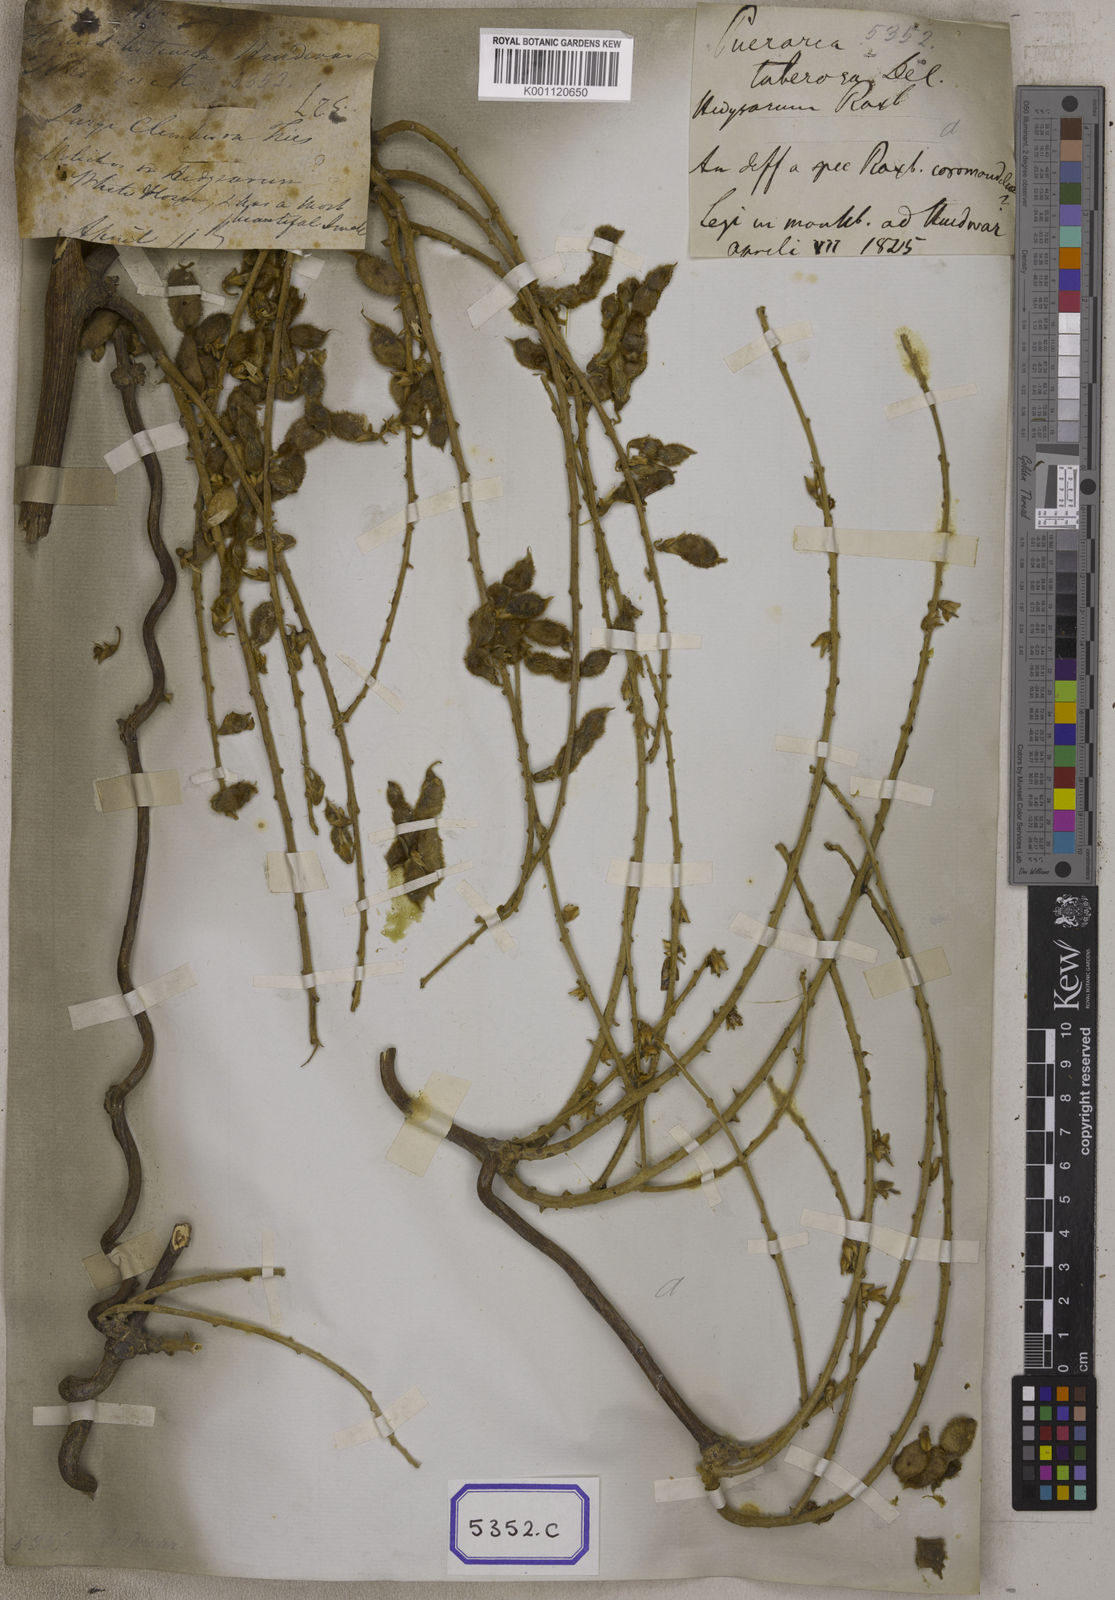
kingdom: Plantae
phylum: Tracheophyta
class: Magnoliopsida
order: Fabales
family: Fabaceae
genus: Pueraria
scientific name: Pueraria tuberosa
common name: Nepalese kudzu
